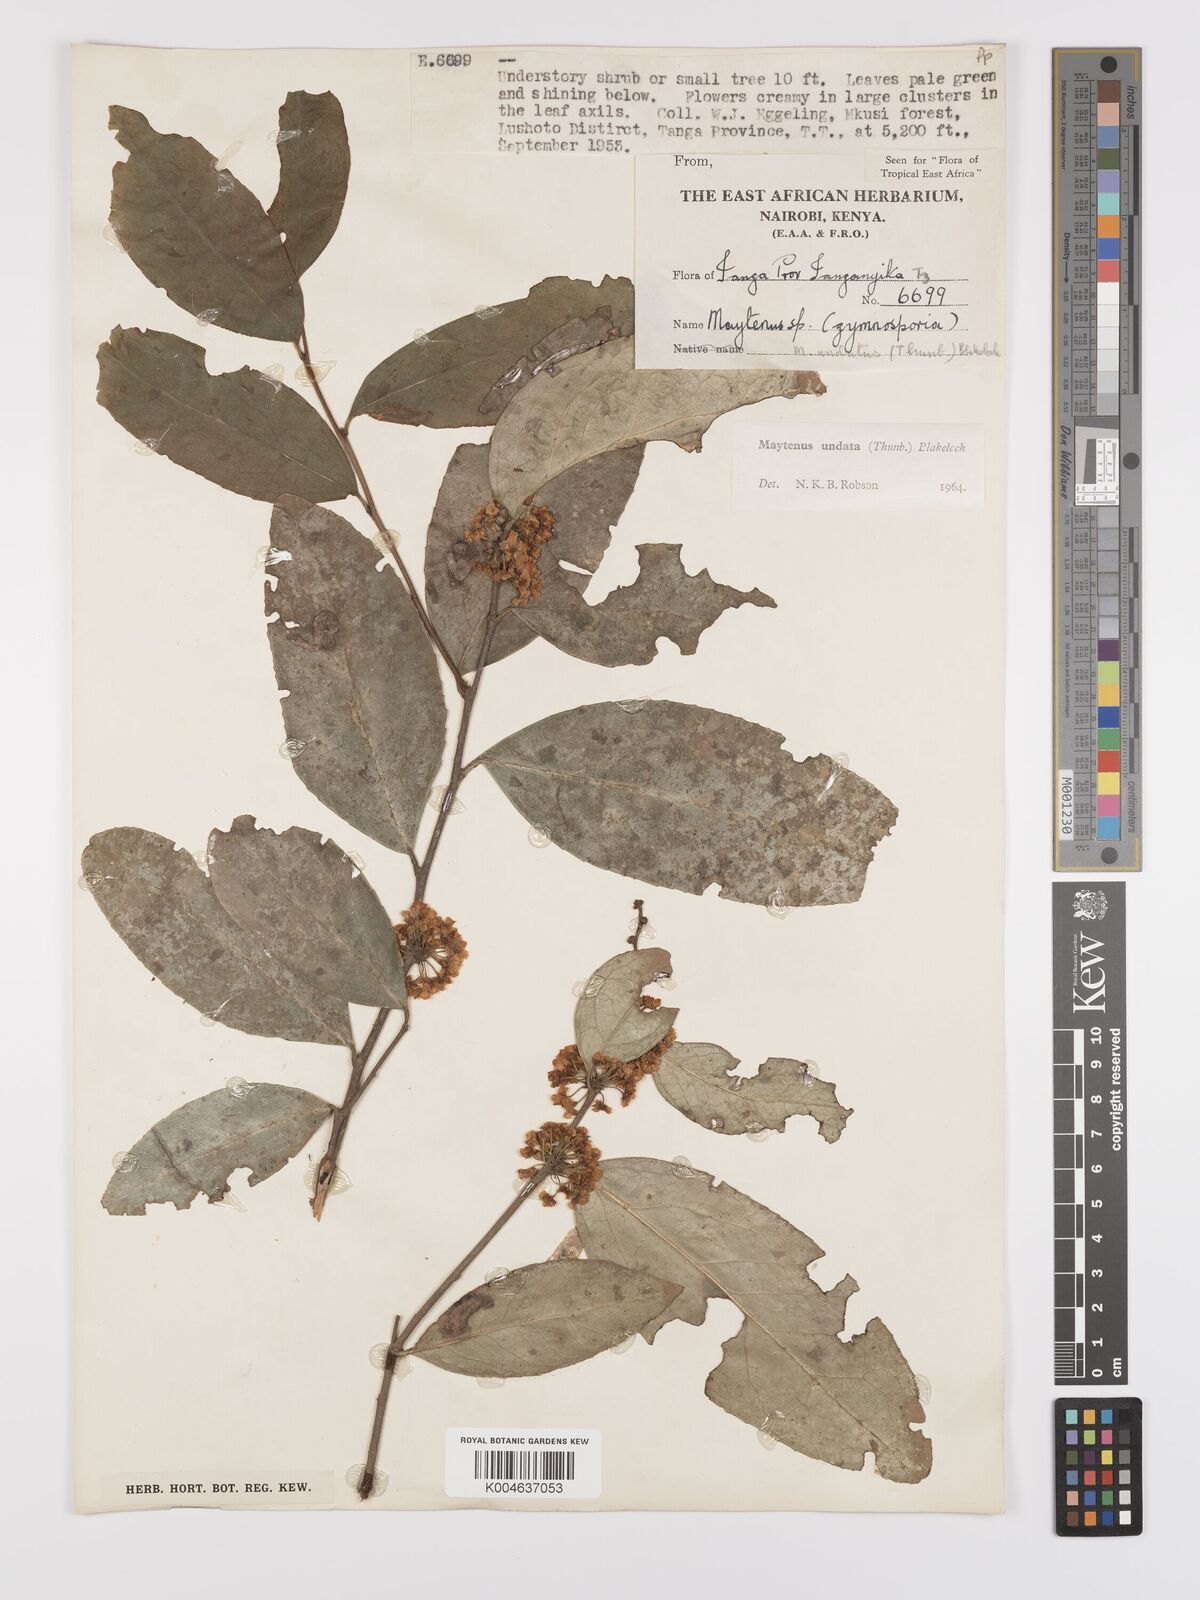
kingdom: Plantae
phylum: Tracheophyta
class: Magnoliopsida
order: Celastrales
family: Celastraceae
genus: Gymnosporia
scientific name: Gymnosporia undata
